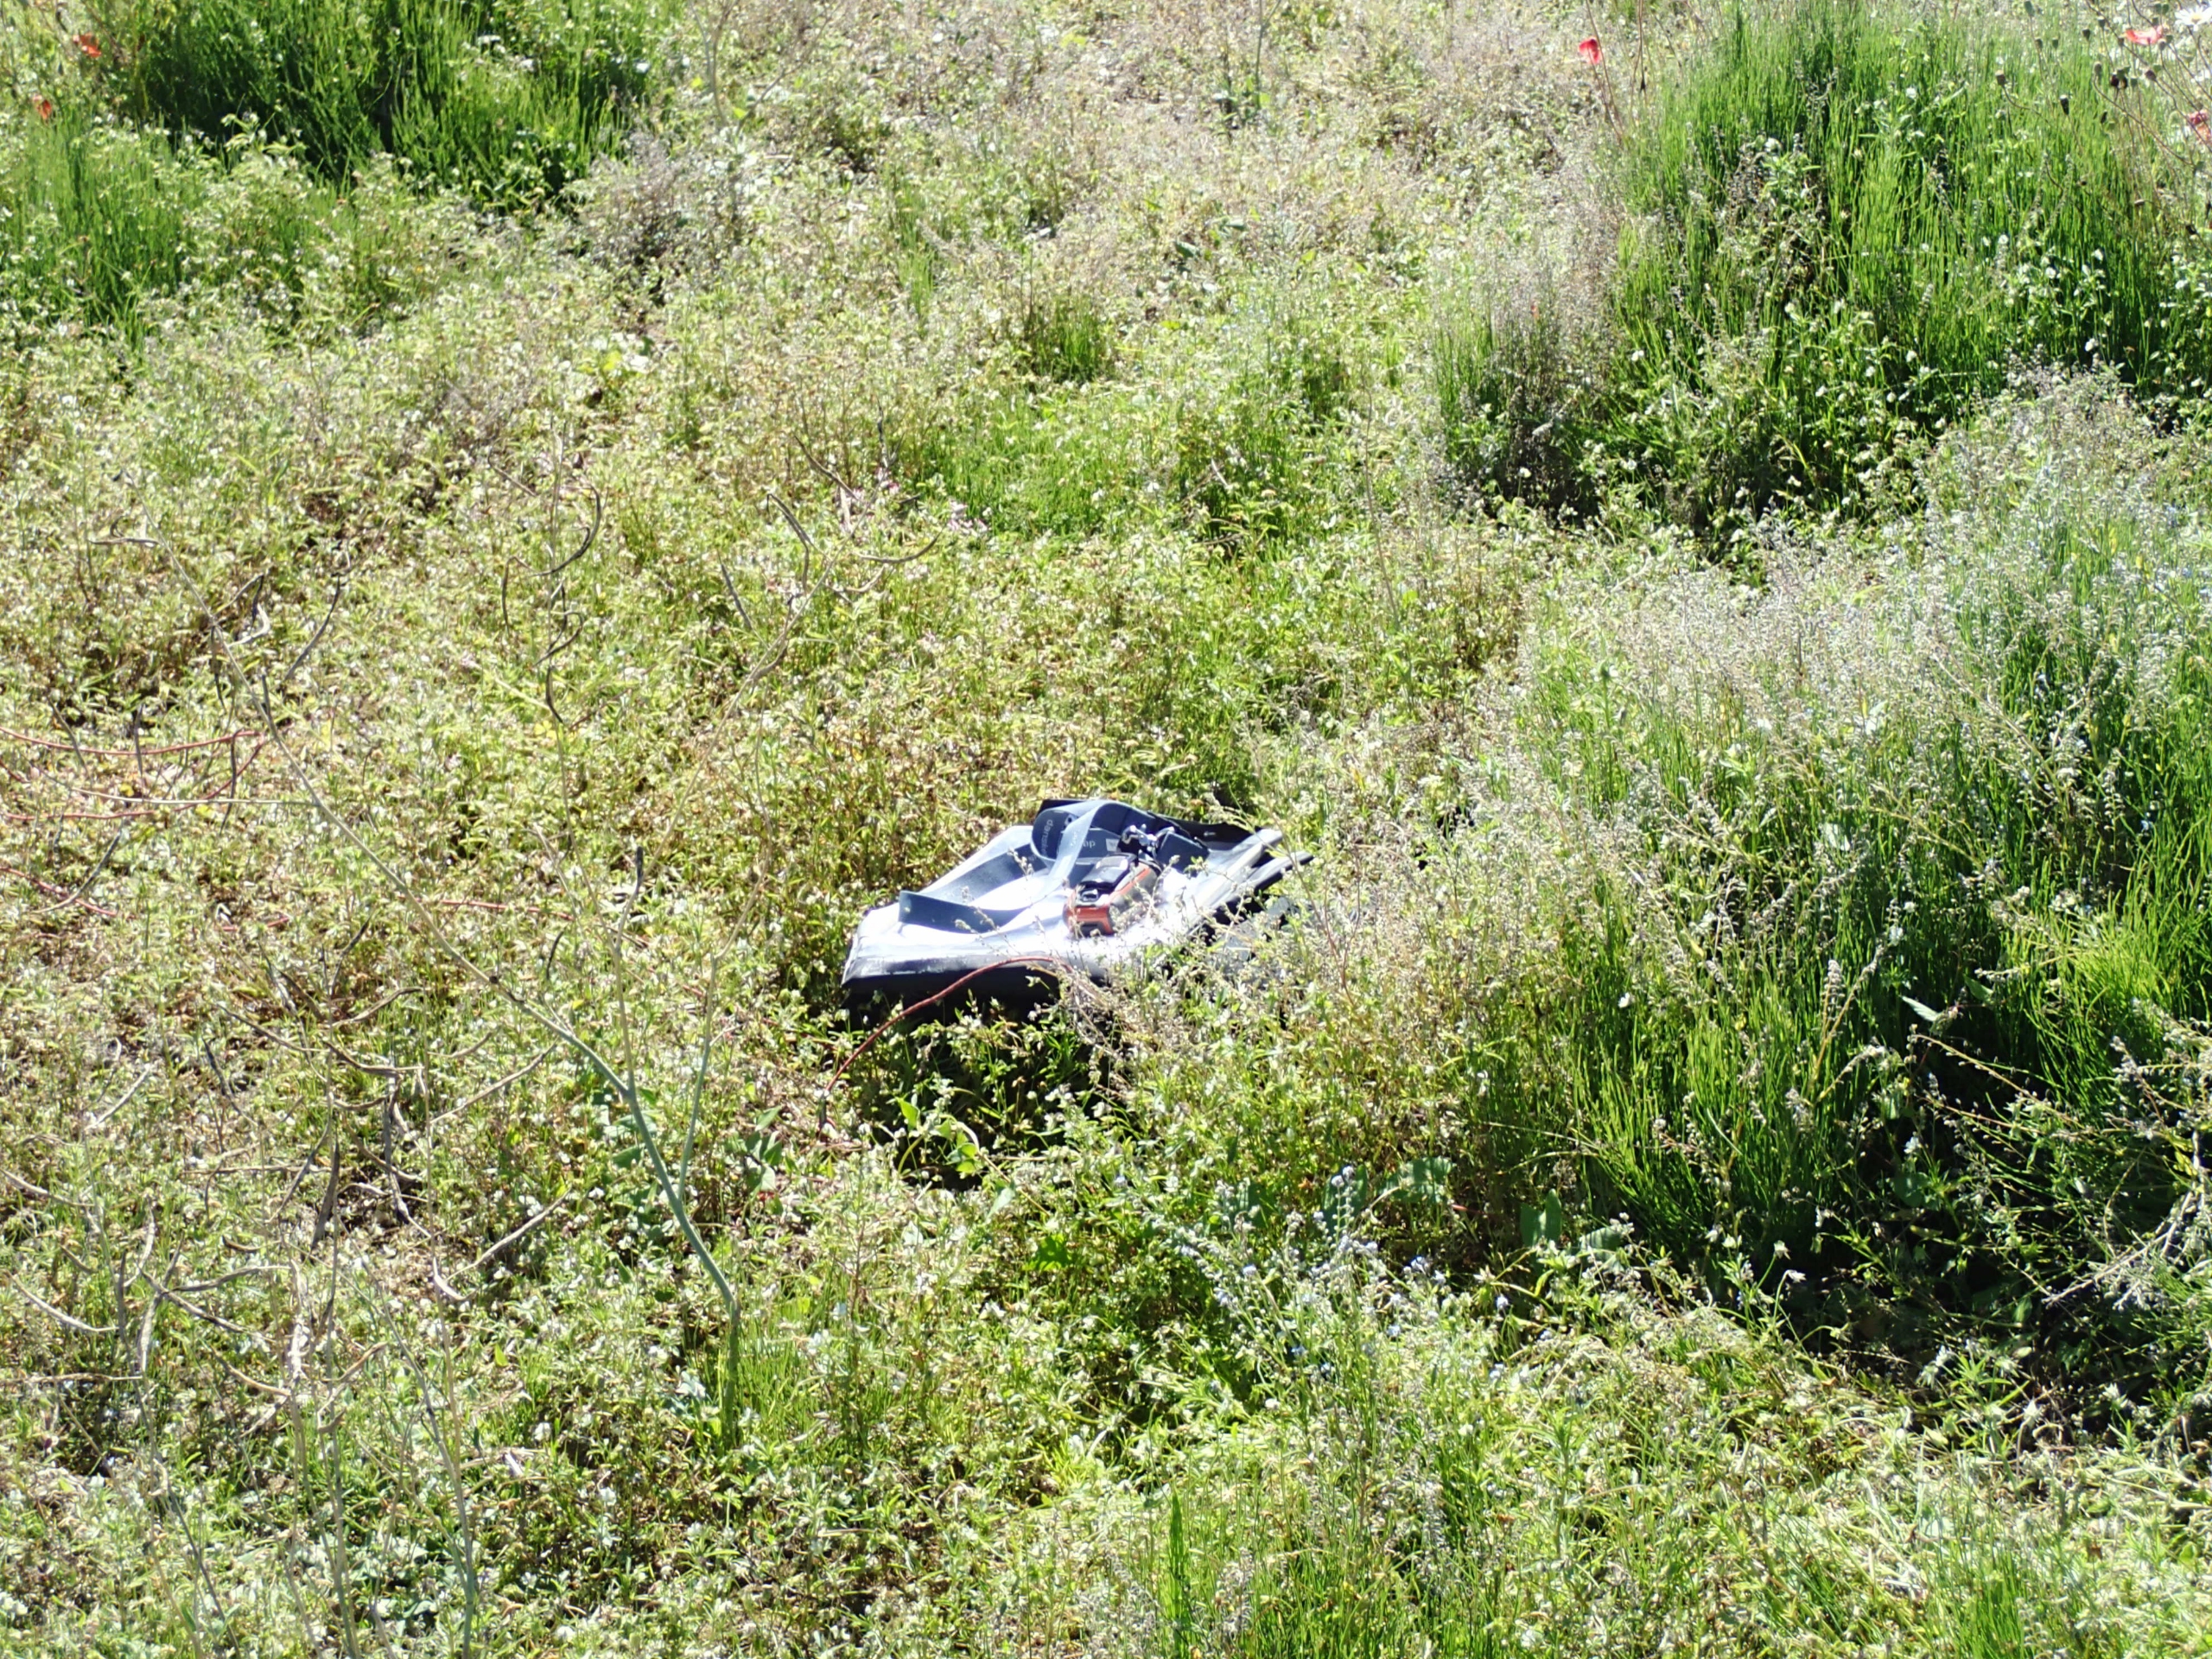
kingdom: Plantae
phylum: Tracheophyta
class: Polypodiopsida
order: Equisetales
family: Equisetaceae
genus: Equisetum
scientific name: Equisetum arvense
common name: Ager-padderok
